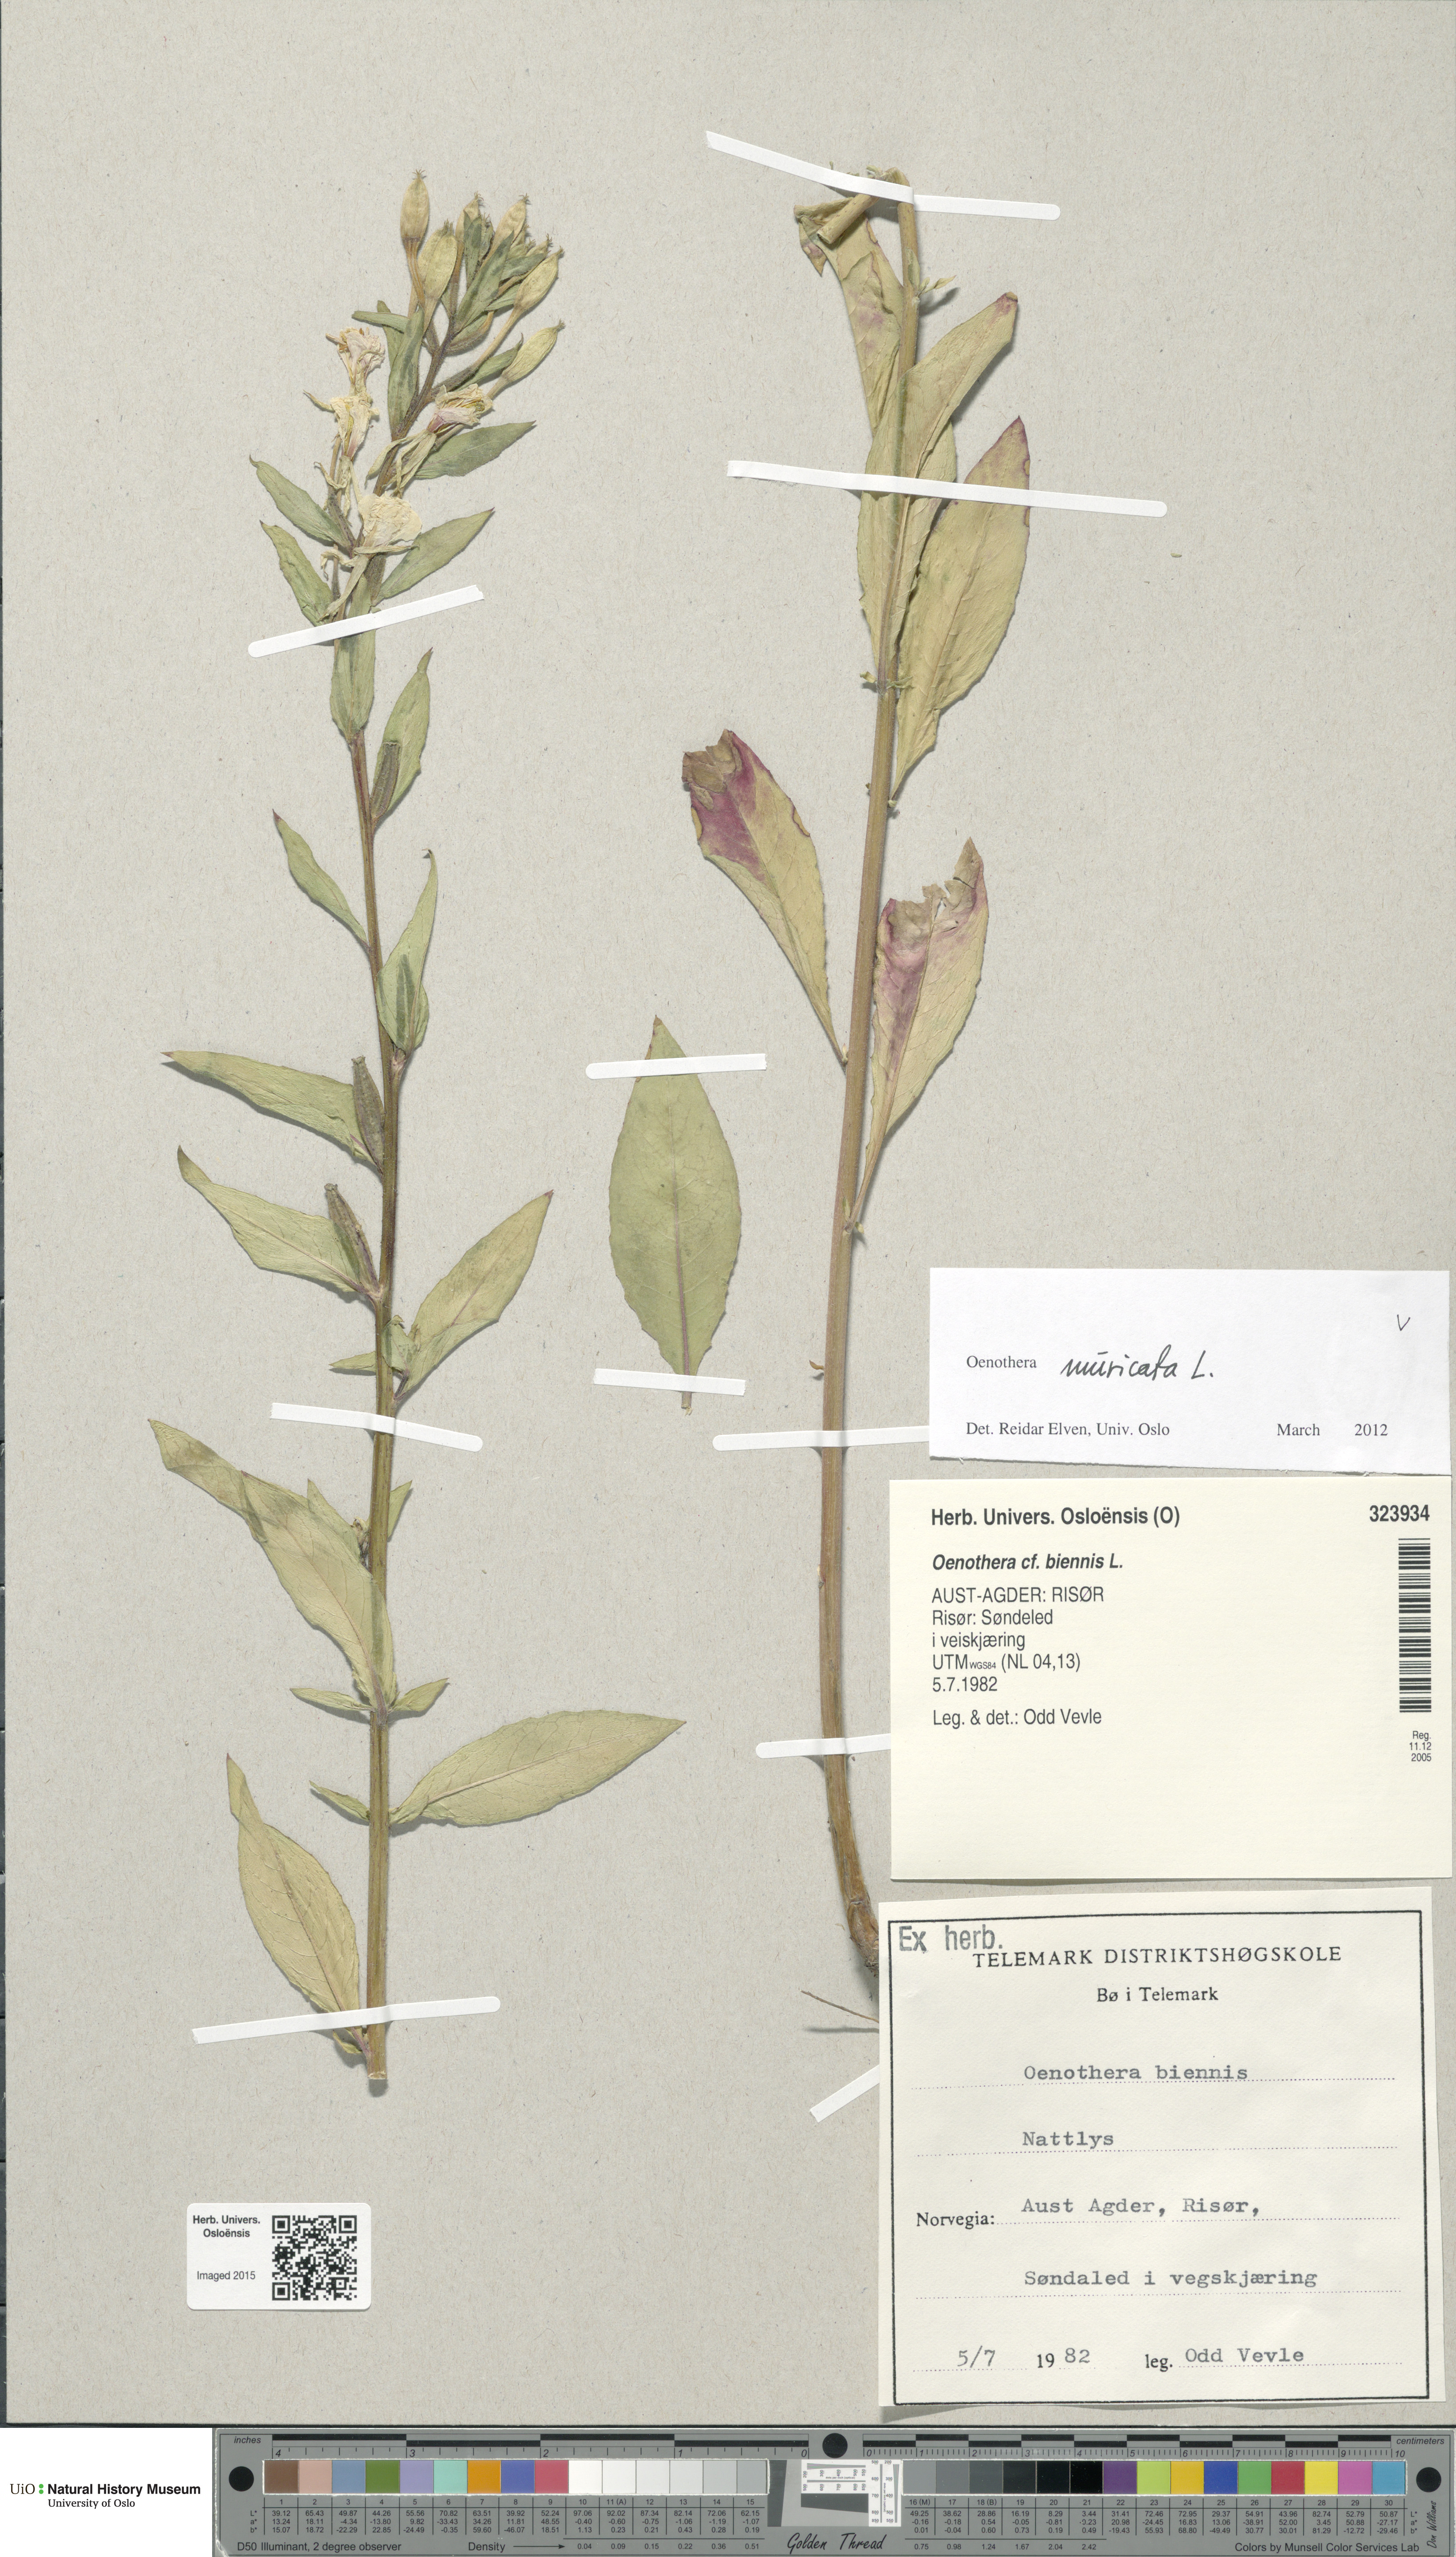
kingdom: Plantae
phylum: Tracheophyta
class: Magnoliopsida
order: Myrtales
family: Onagraceae
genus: Oenothera
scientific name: Oenothera biennis
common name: Common evening-primrose
